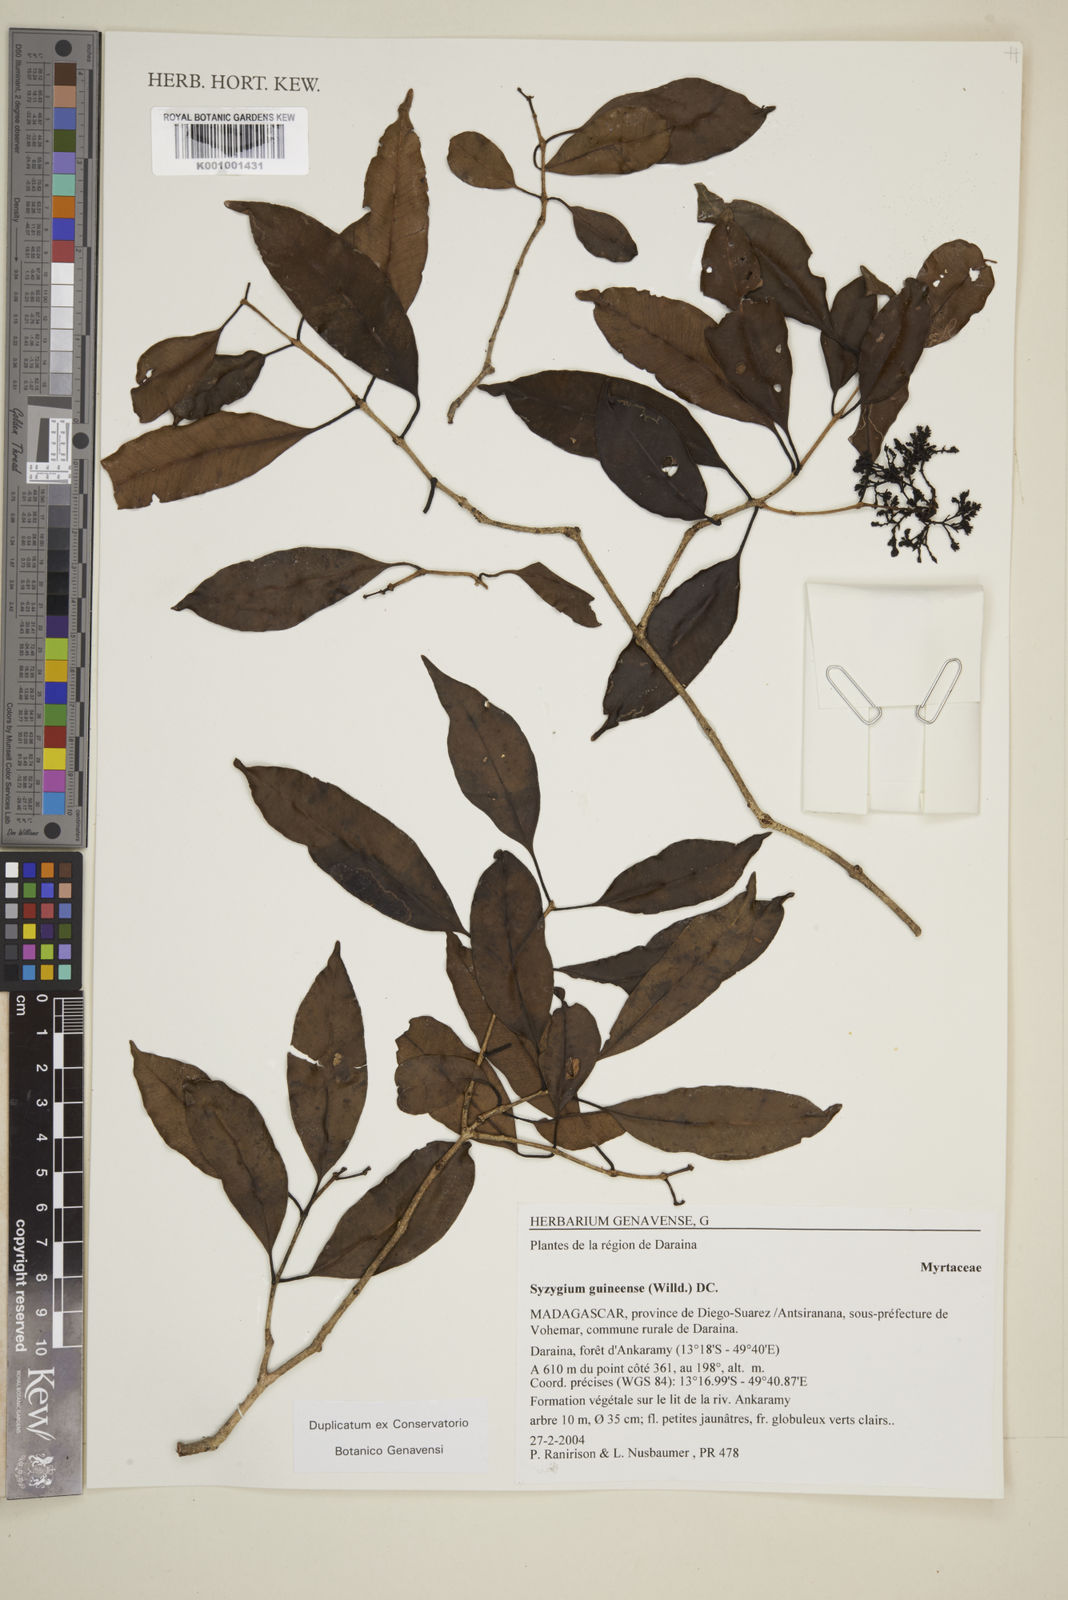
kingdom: Plantae
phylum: Tracheophyta
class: Magnoliopsida
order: Myrtales
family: Myrtaceae
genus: Eugenia
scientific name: Eugenia comorensis
